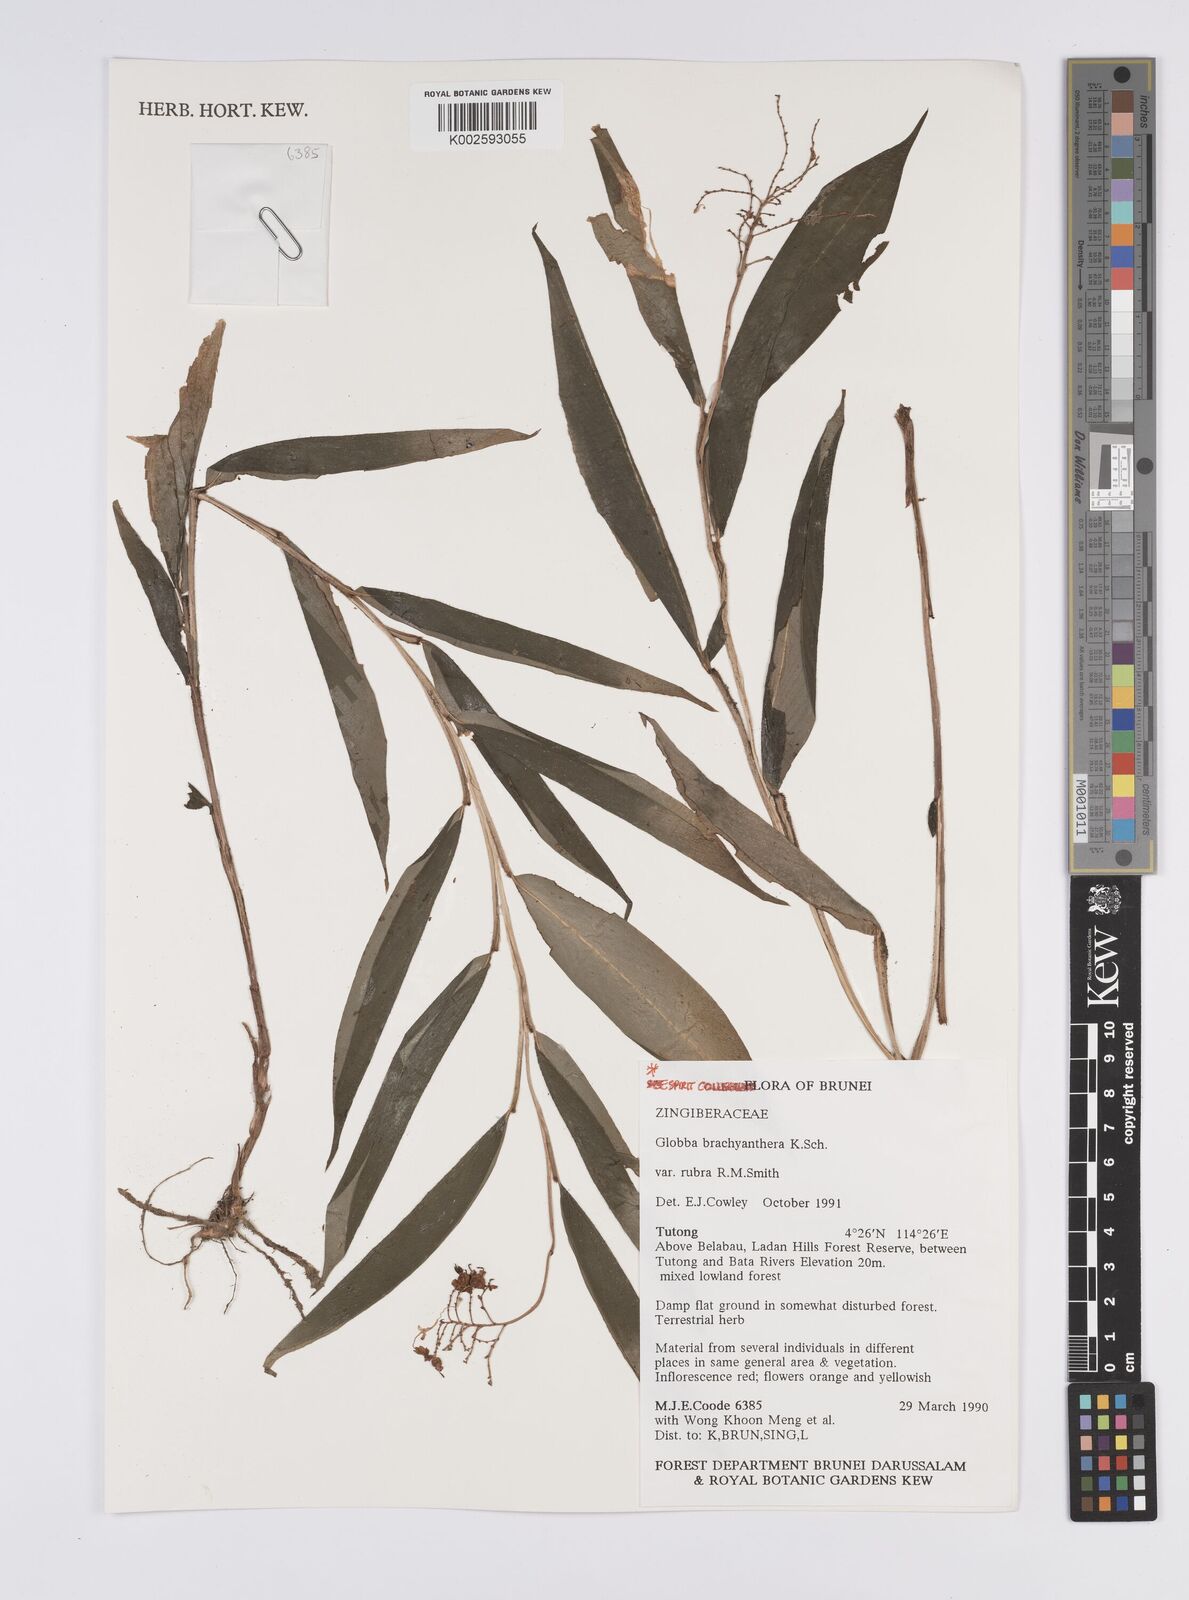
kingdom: Plantae
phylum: Tracheophyta
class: Liliopsida
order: Zingiberales
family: Zingiberaceae
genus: Globba
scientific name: Globba brachyanthera
